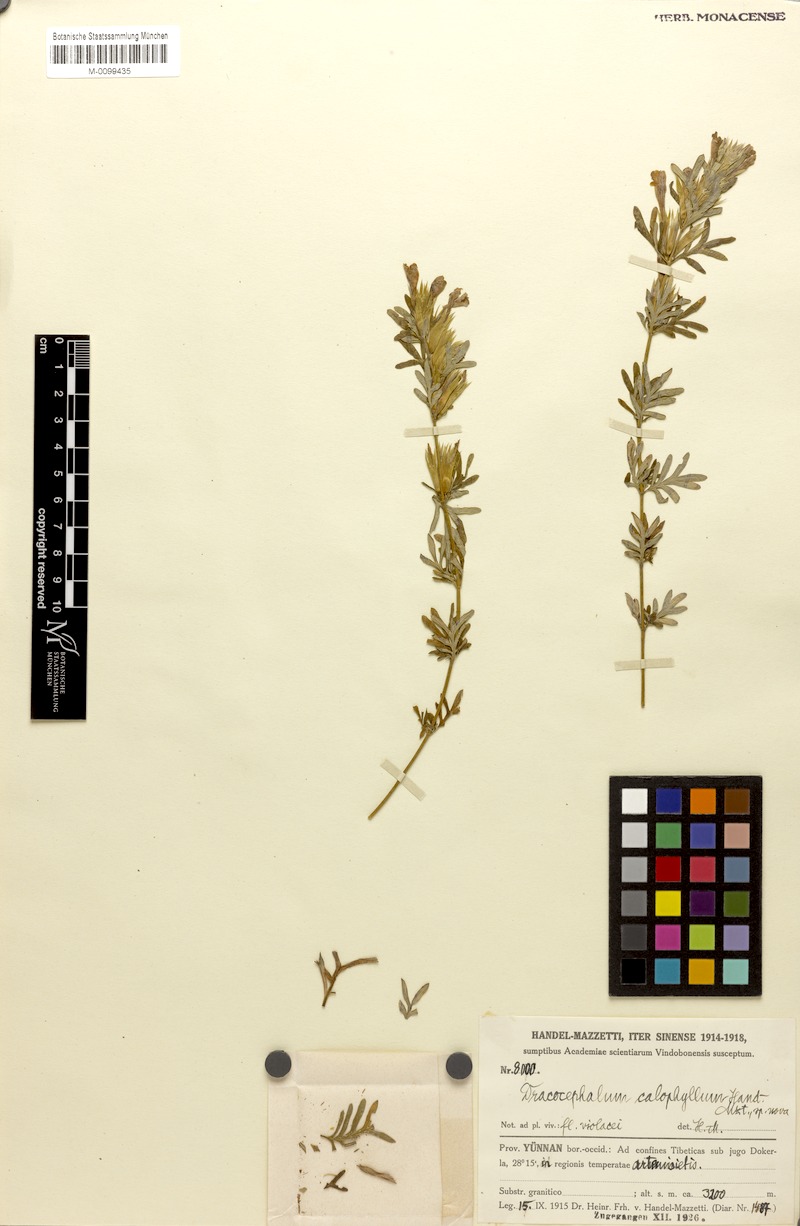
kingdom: Plantae
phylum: Tracheophyta
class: Magnoliopsida
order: Lamiales
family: Lamiaceae
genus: Dracocephalum
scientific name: Dracocephalum calophyllum
